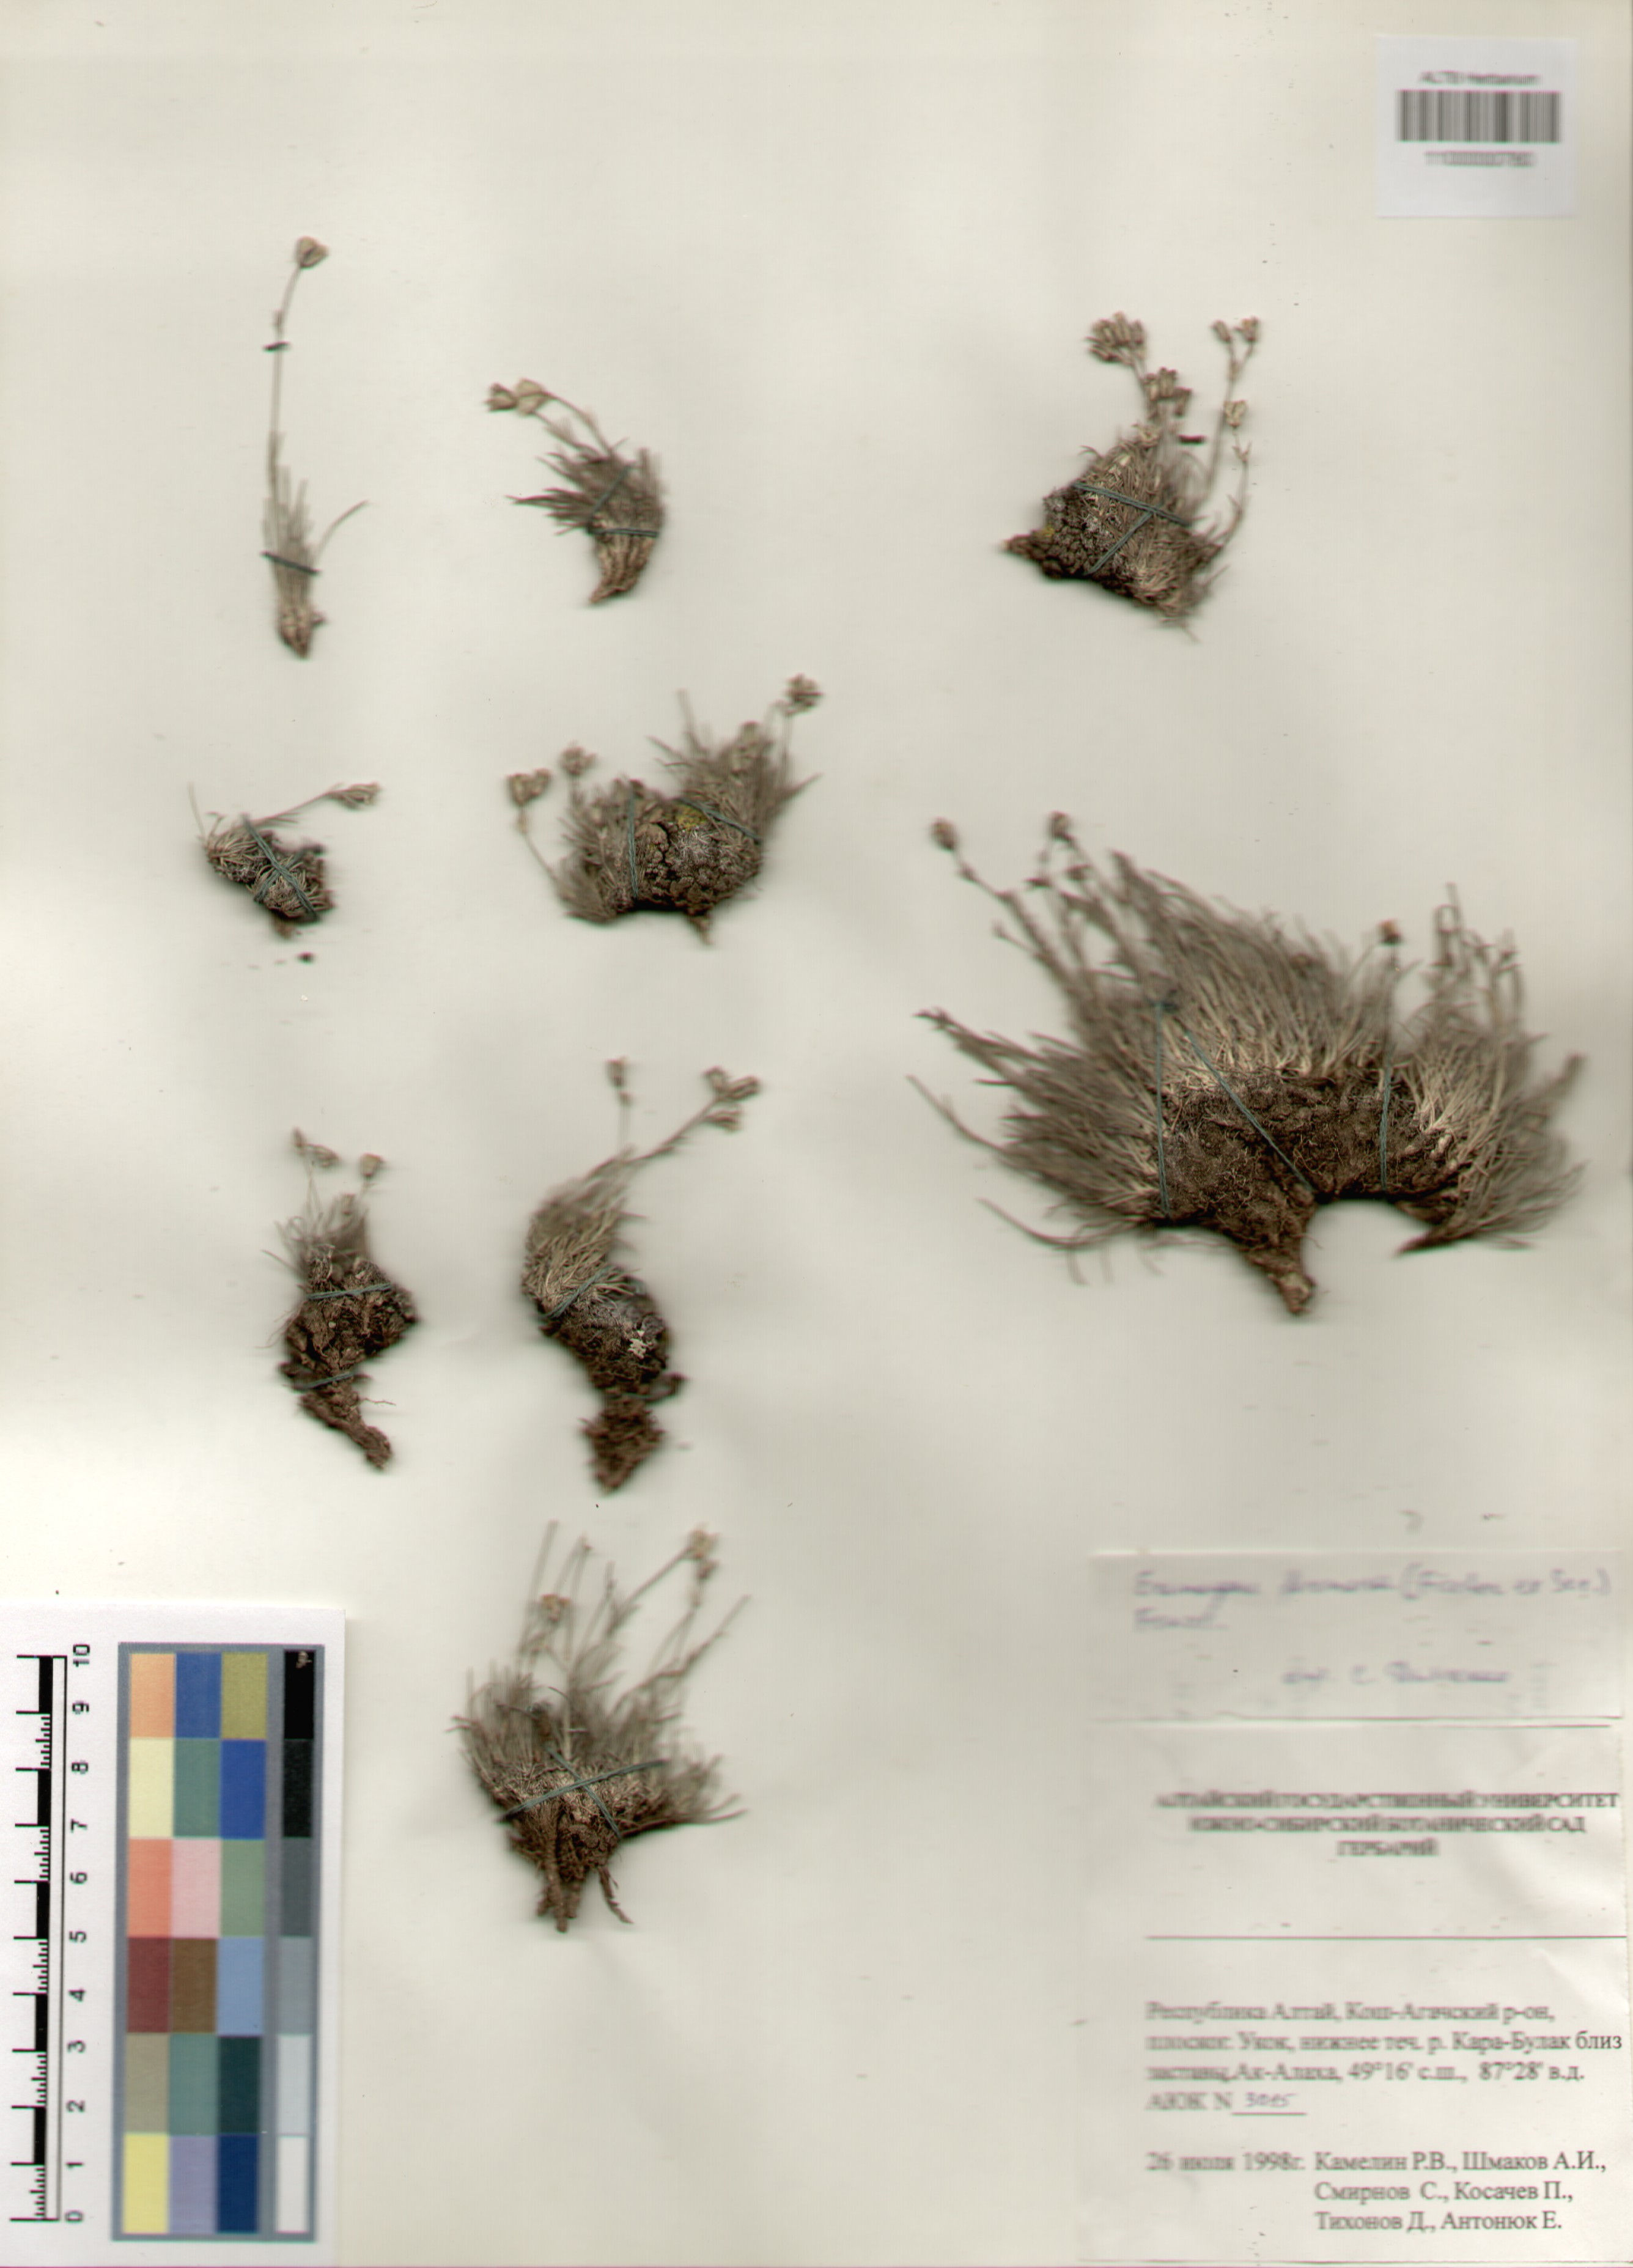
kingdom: Plantae
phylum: Tracheophyta
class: Magnoliopsida
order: Caryophyllales
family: Caryophyllaceae
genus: Eremogone
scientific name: Eremogone formosa
